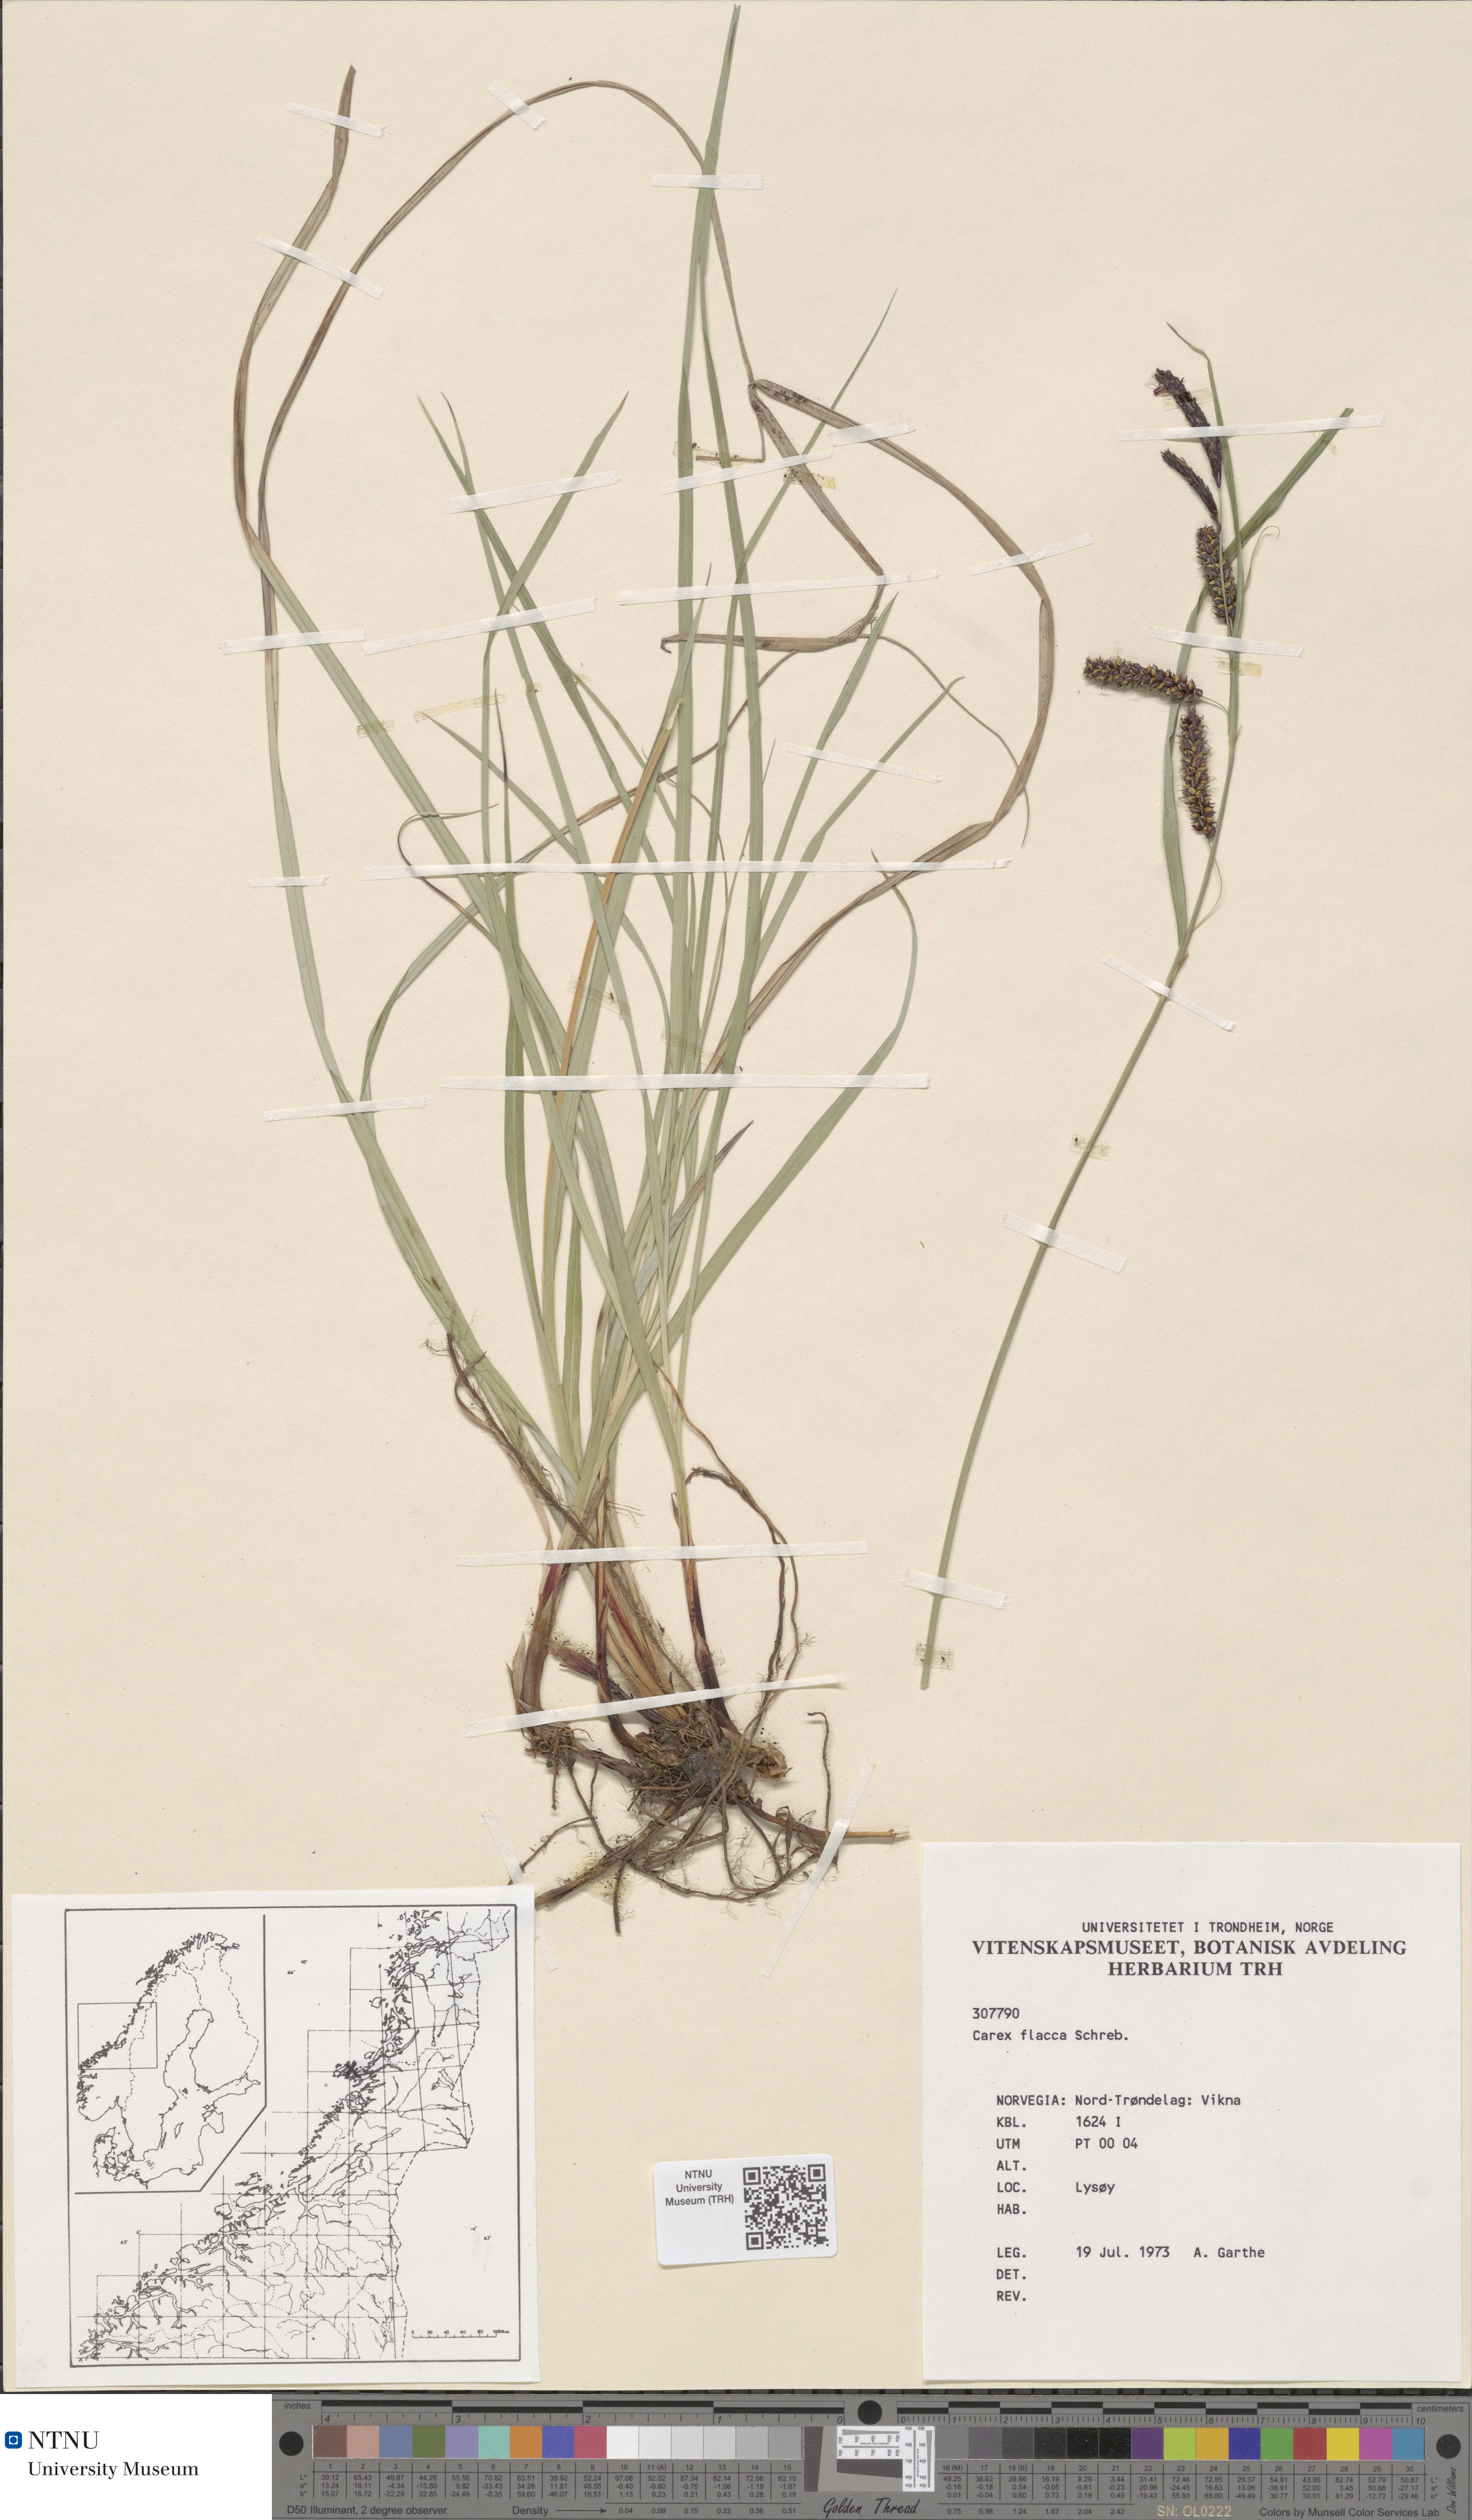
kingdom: Plantae
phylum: Tracheophyta
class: Liliopsida
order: Poales
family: Cyperaceae
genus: Carex
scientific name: Carex flacca
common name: Glaucous sedge
